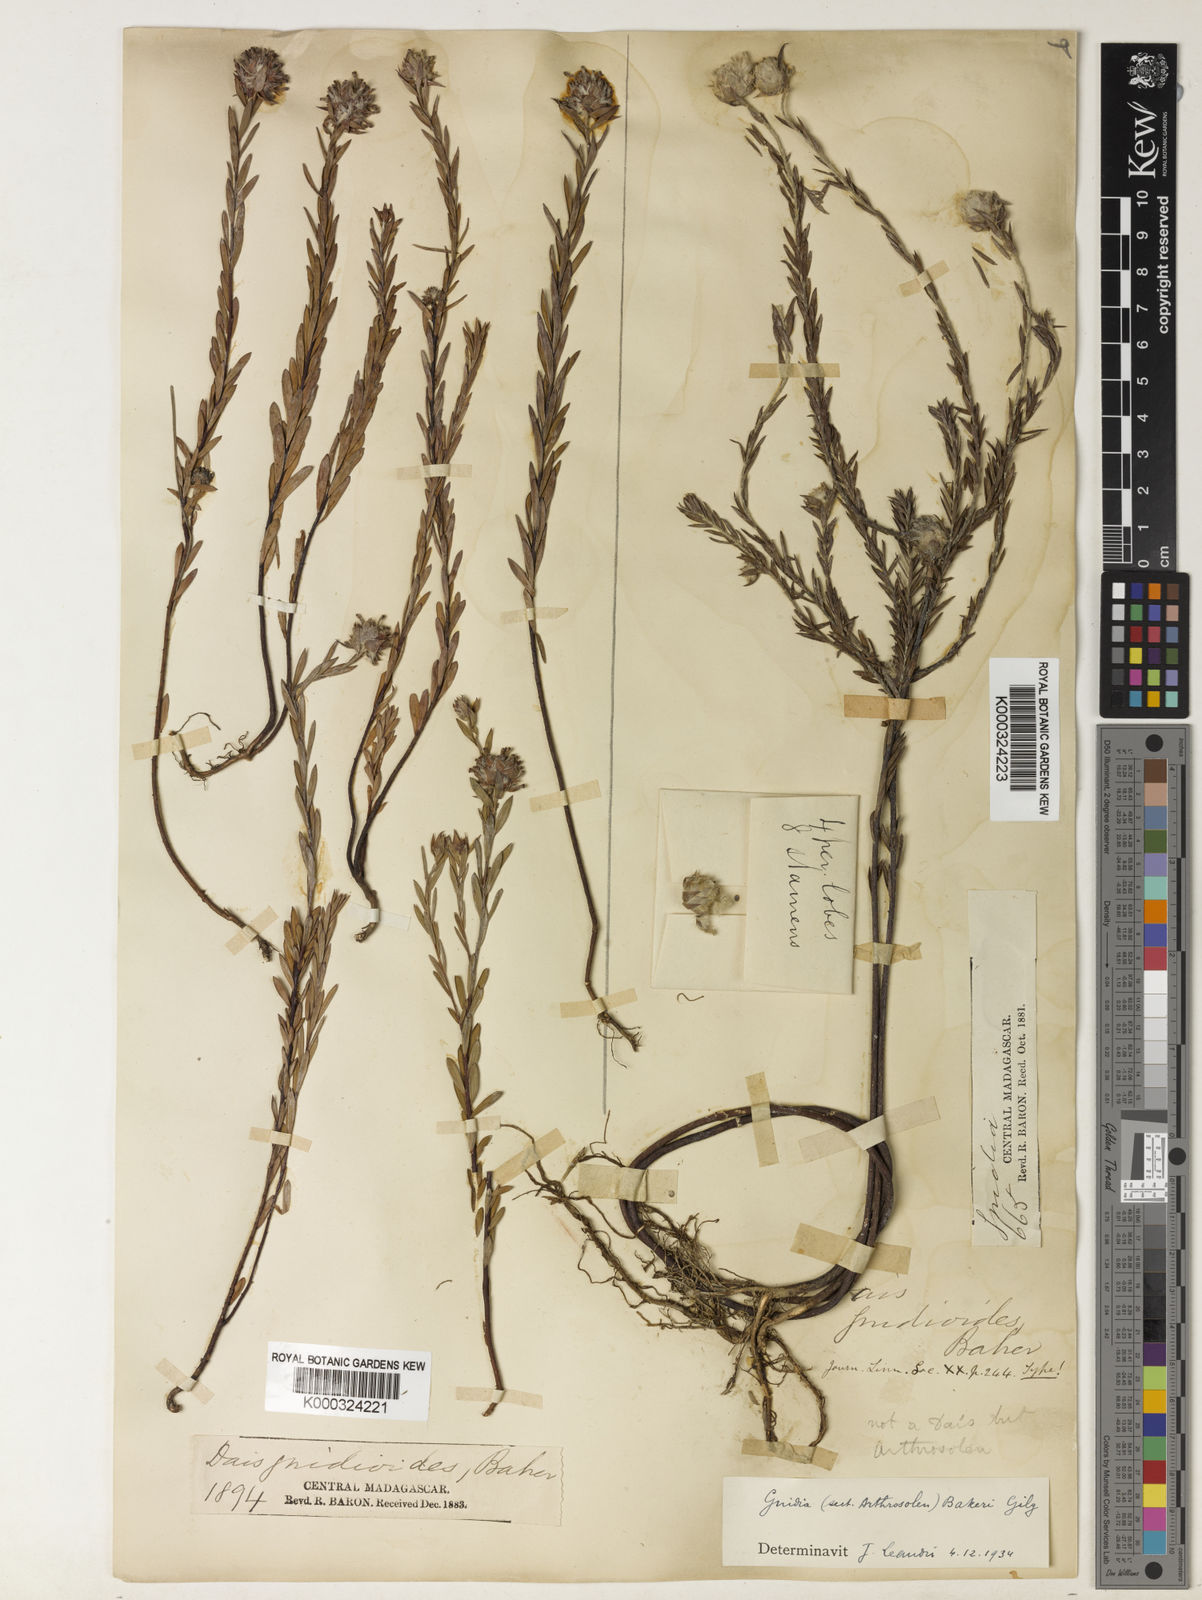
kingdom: Plantae
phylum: Tracheophyta
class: Magnoliopsida
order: Malvales
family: Thymelaeaceae
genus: Gnidia
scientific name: Gnidia gnidioides
